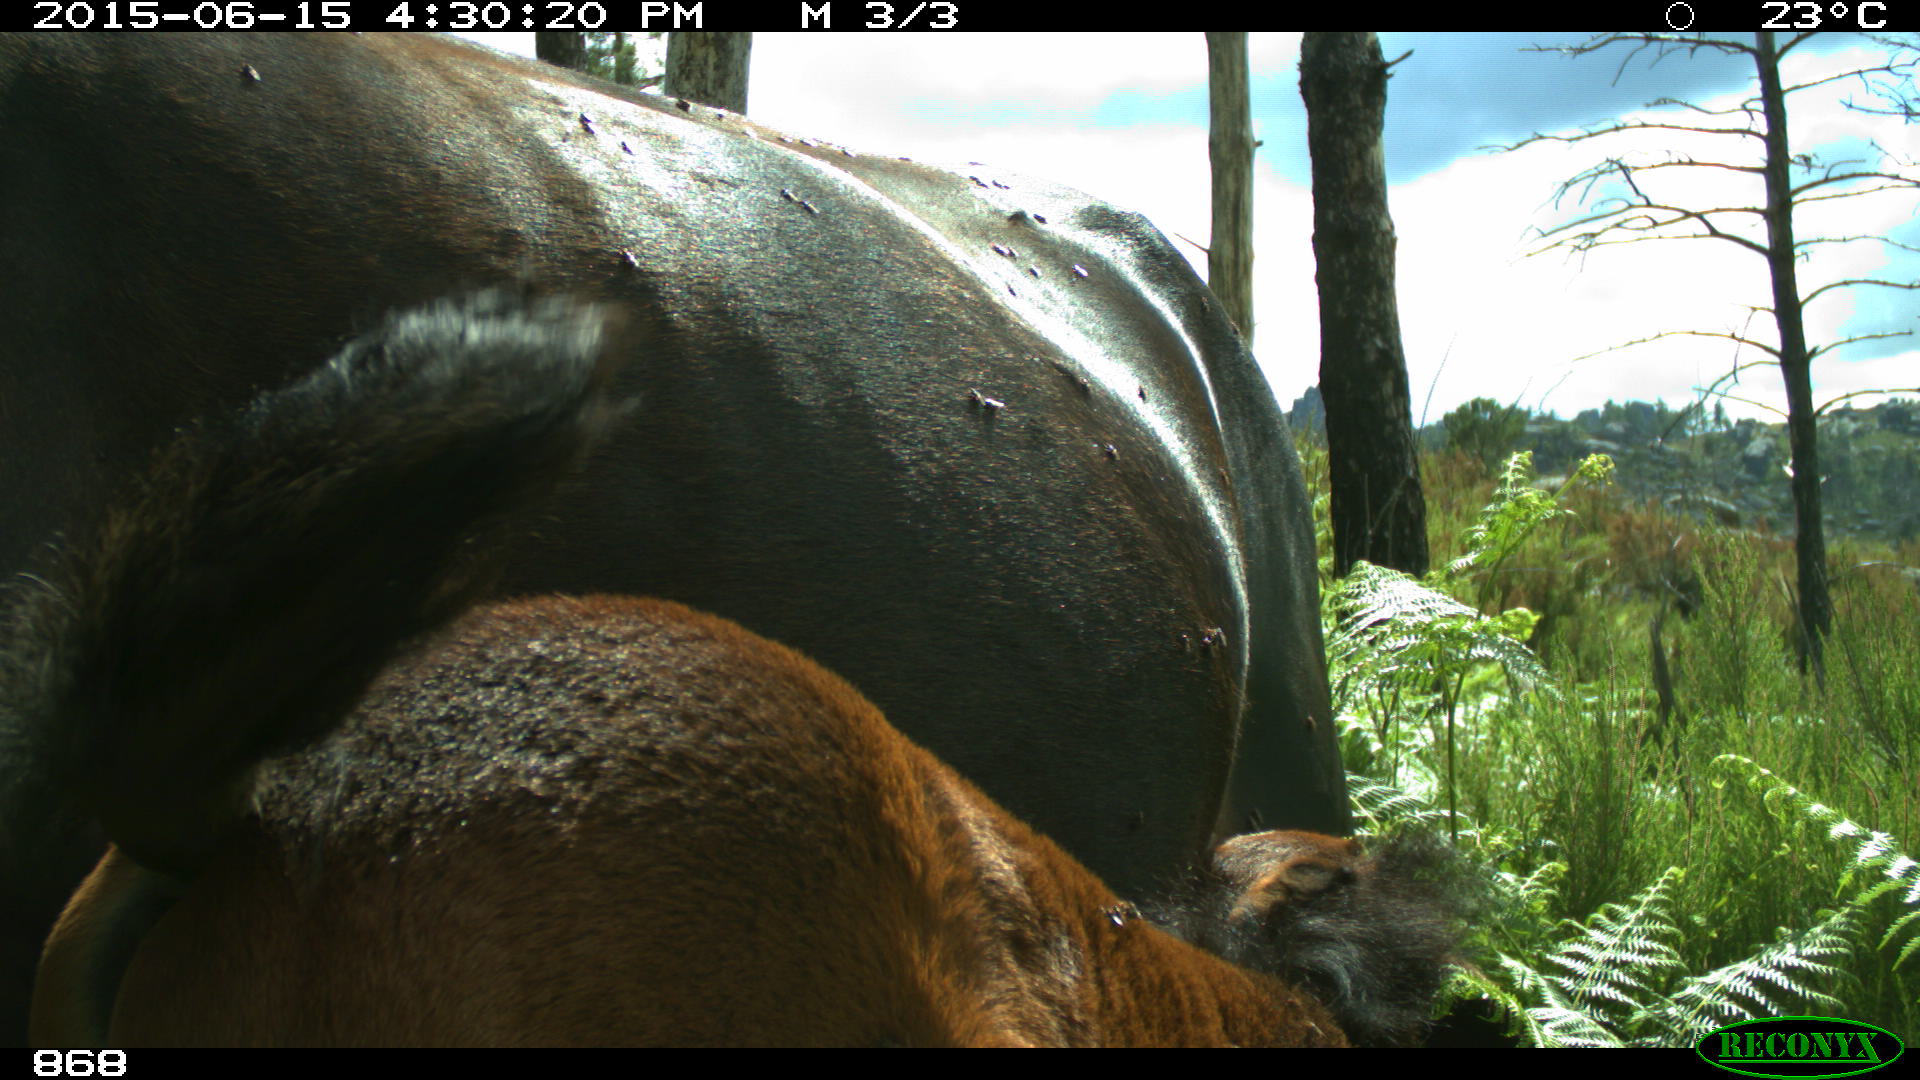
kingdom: Animalia
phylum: Chordata
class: Mammalia
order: Perissodactyla
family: Equidae
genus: Equus
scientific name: Equus caballus
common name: Horse
